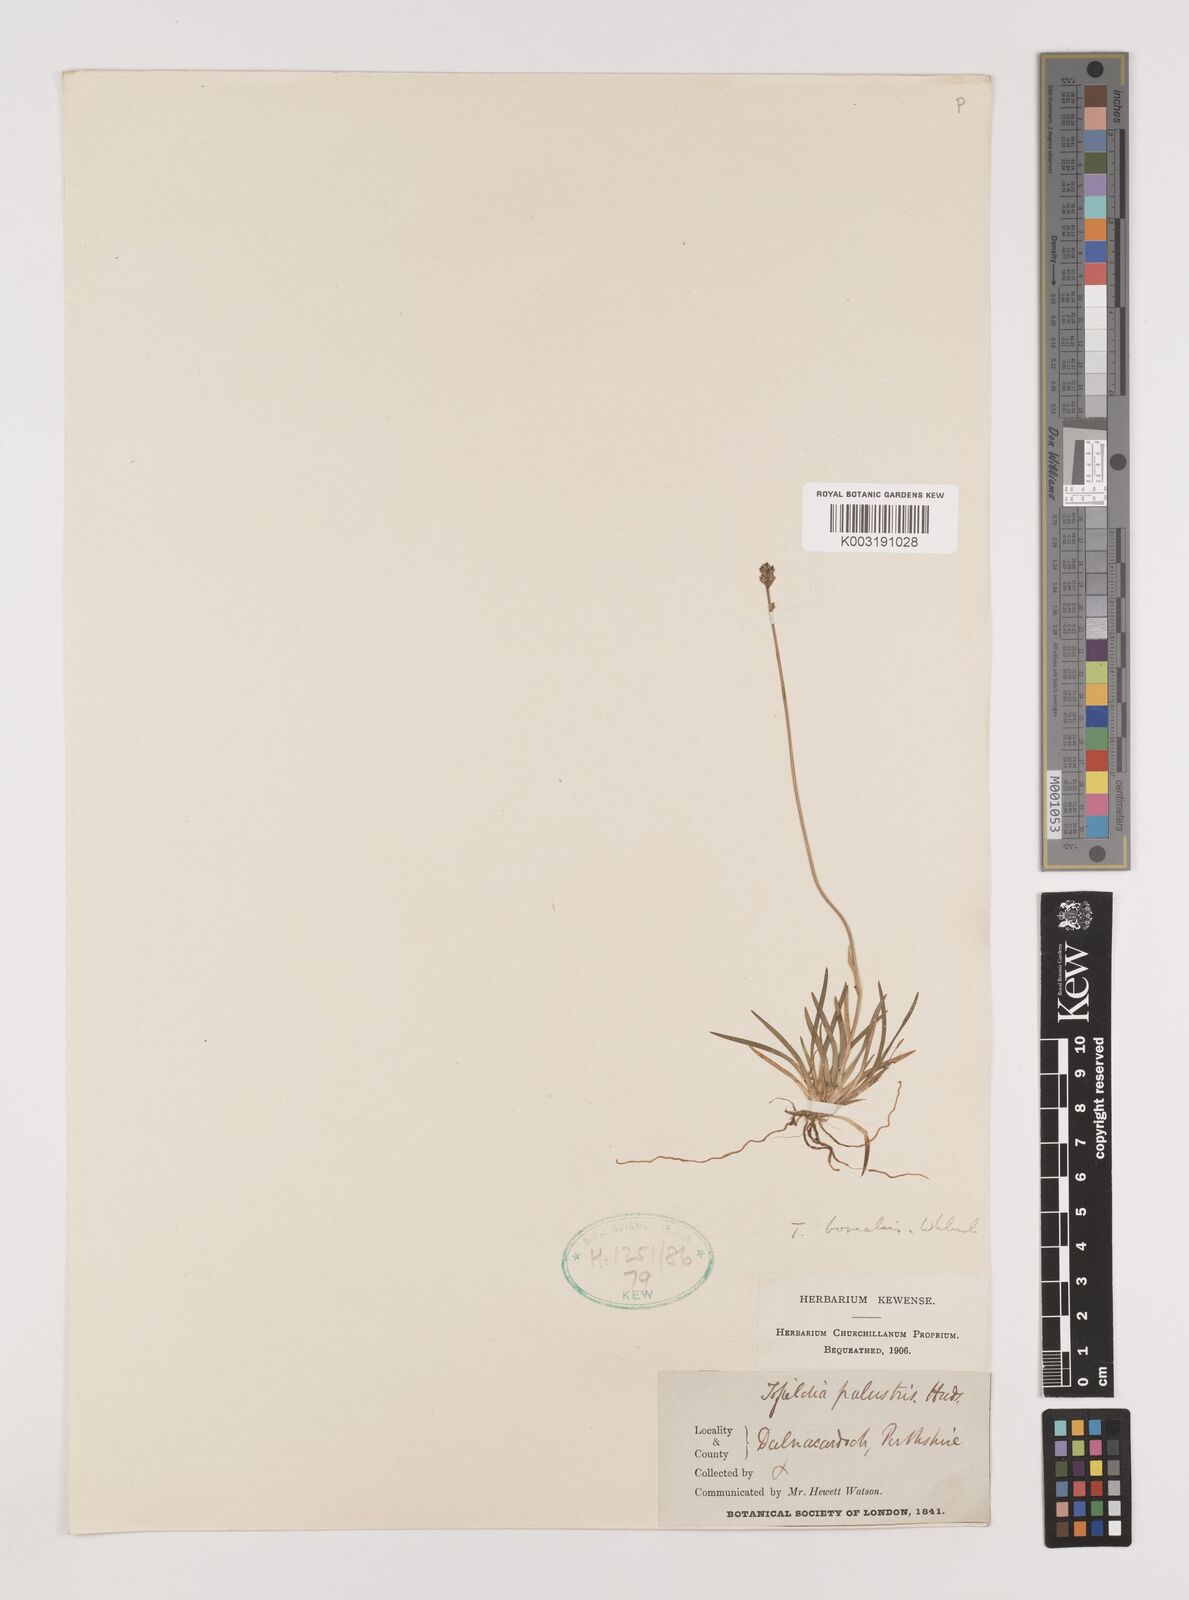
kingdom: Plantae
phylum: Tracheophyta
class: Liliopsida
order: Alismatales
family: Tofieldiaceae
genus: Tofieldia
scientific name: Tofieldia pusilla
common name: Scottish false asphodel
